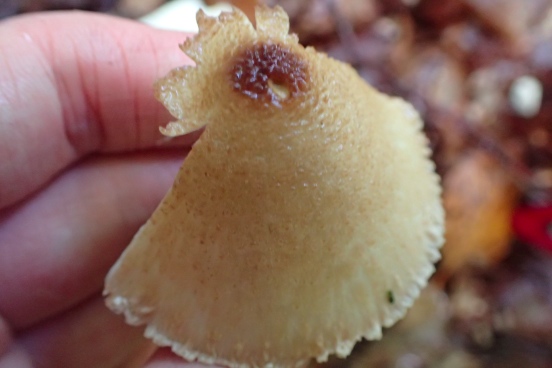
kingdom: Fungi
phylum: Basidiomycota
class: Agaricomycetes
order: Agaricales
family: Agaricaceae
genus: Lepiota
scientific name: Lepiota magnispora
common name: gulfnugget parasolhat
